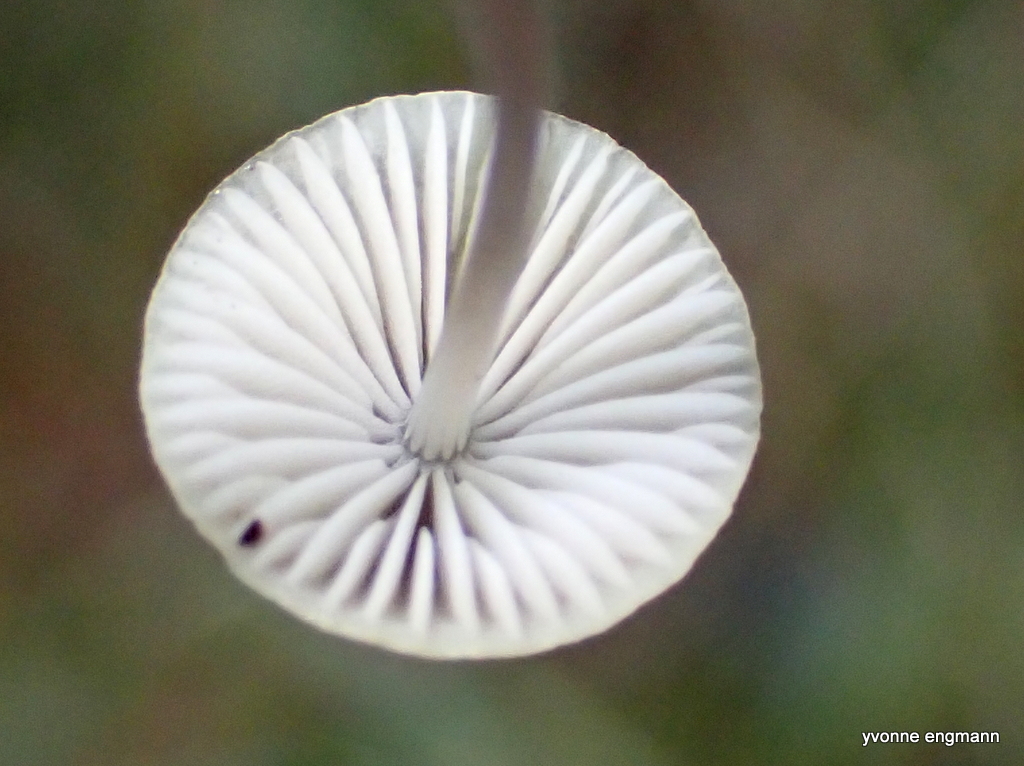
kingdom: Fungi
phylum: Basidiomycota
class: Agaricomycetes
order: Agaricales
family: Mycenaceae
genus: Mycena
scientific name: Mycena vitilis
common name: blankstokket huesvamp
